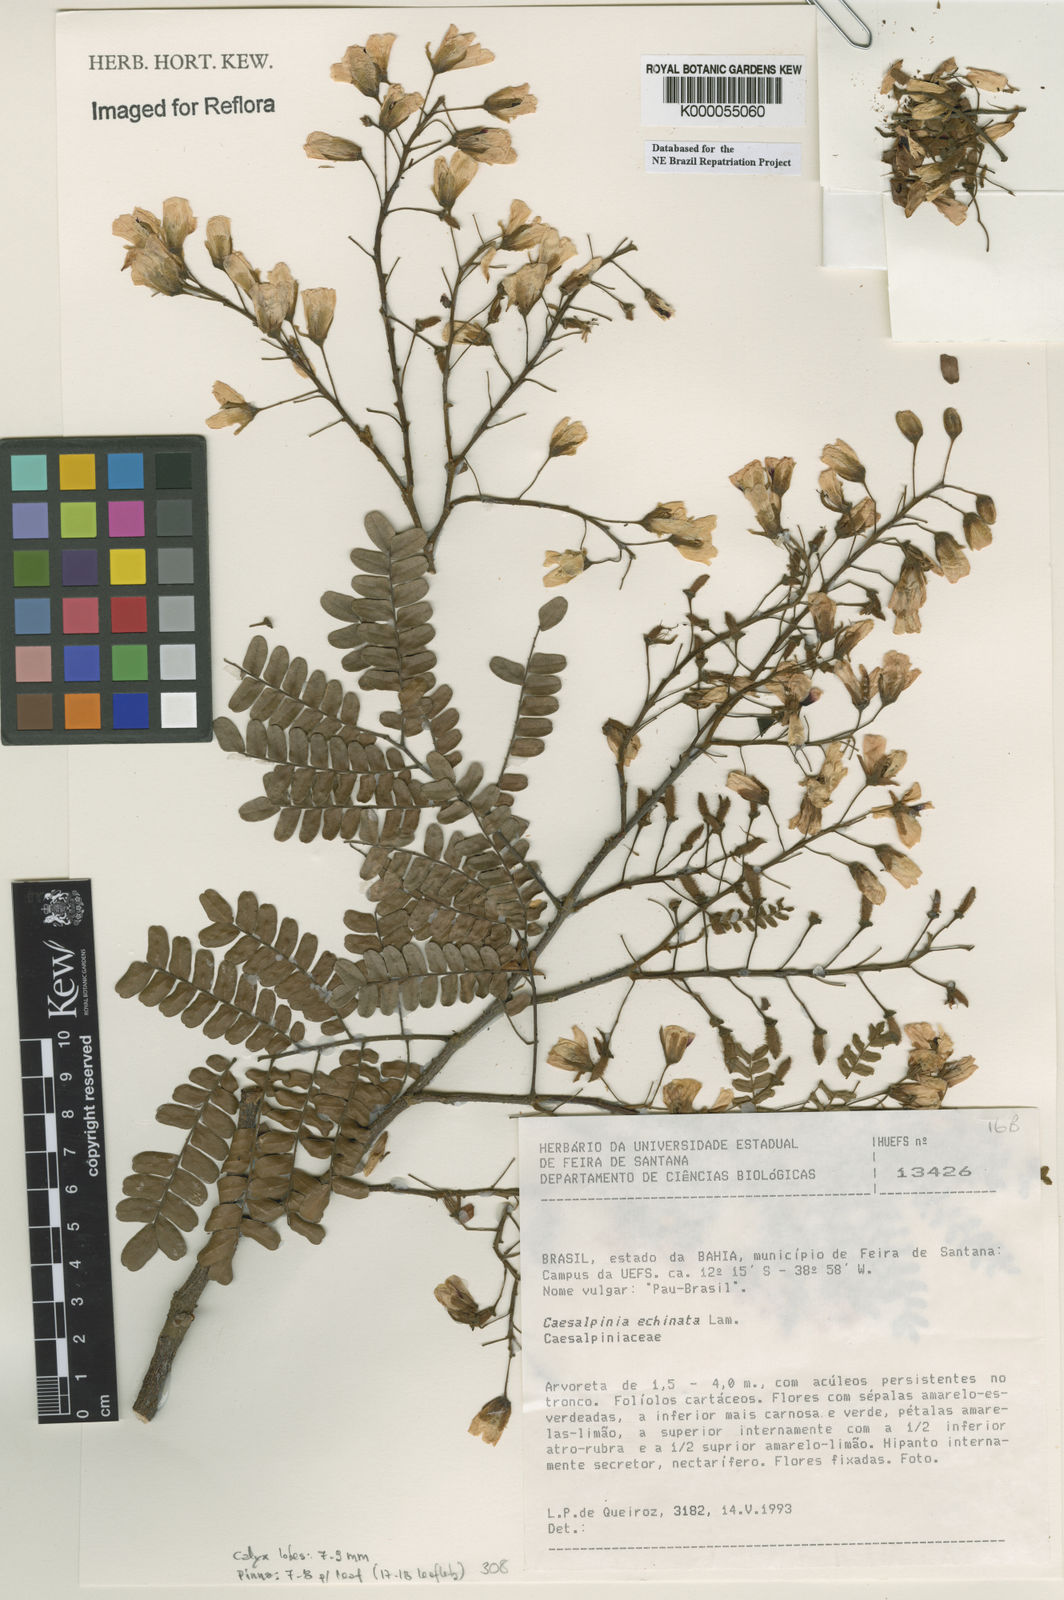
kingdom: Plantae
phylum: Tracheophyta
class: Magnoliopsida
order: Fabales
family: Fabaceae
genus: Paubrasilia
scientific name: Paubrasilia echinata
